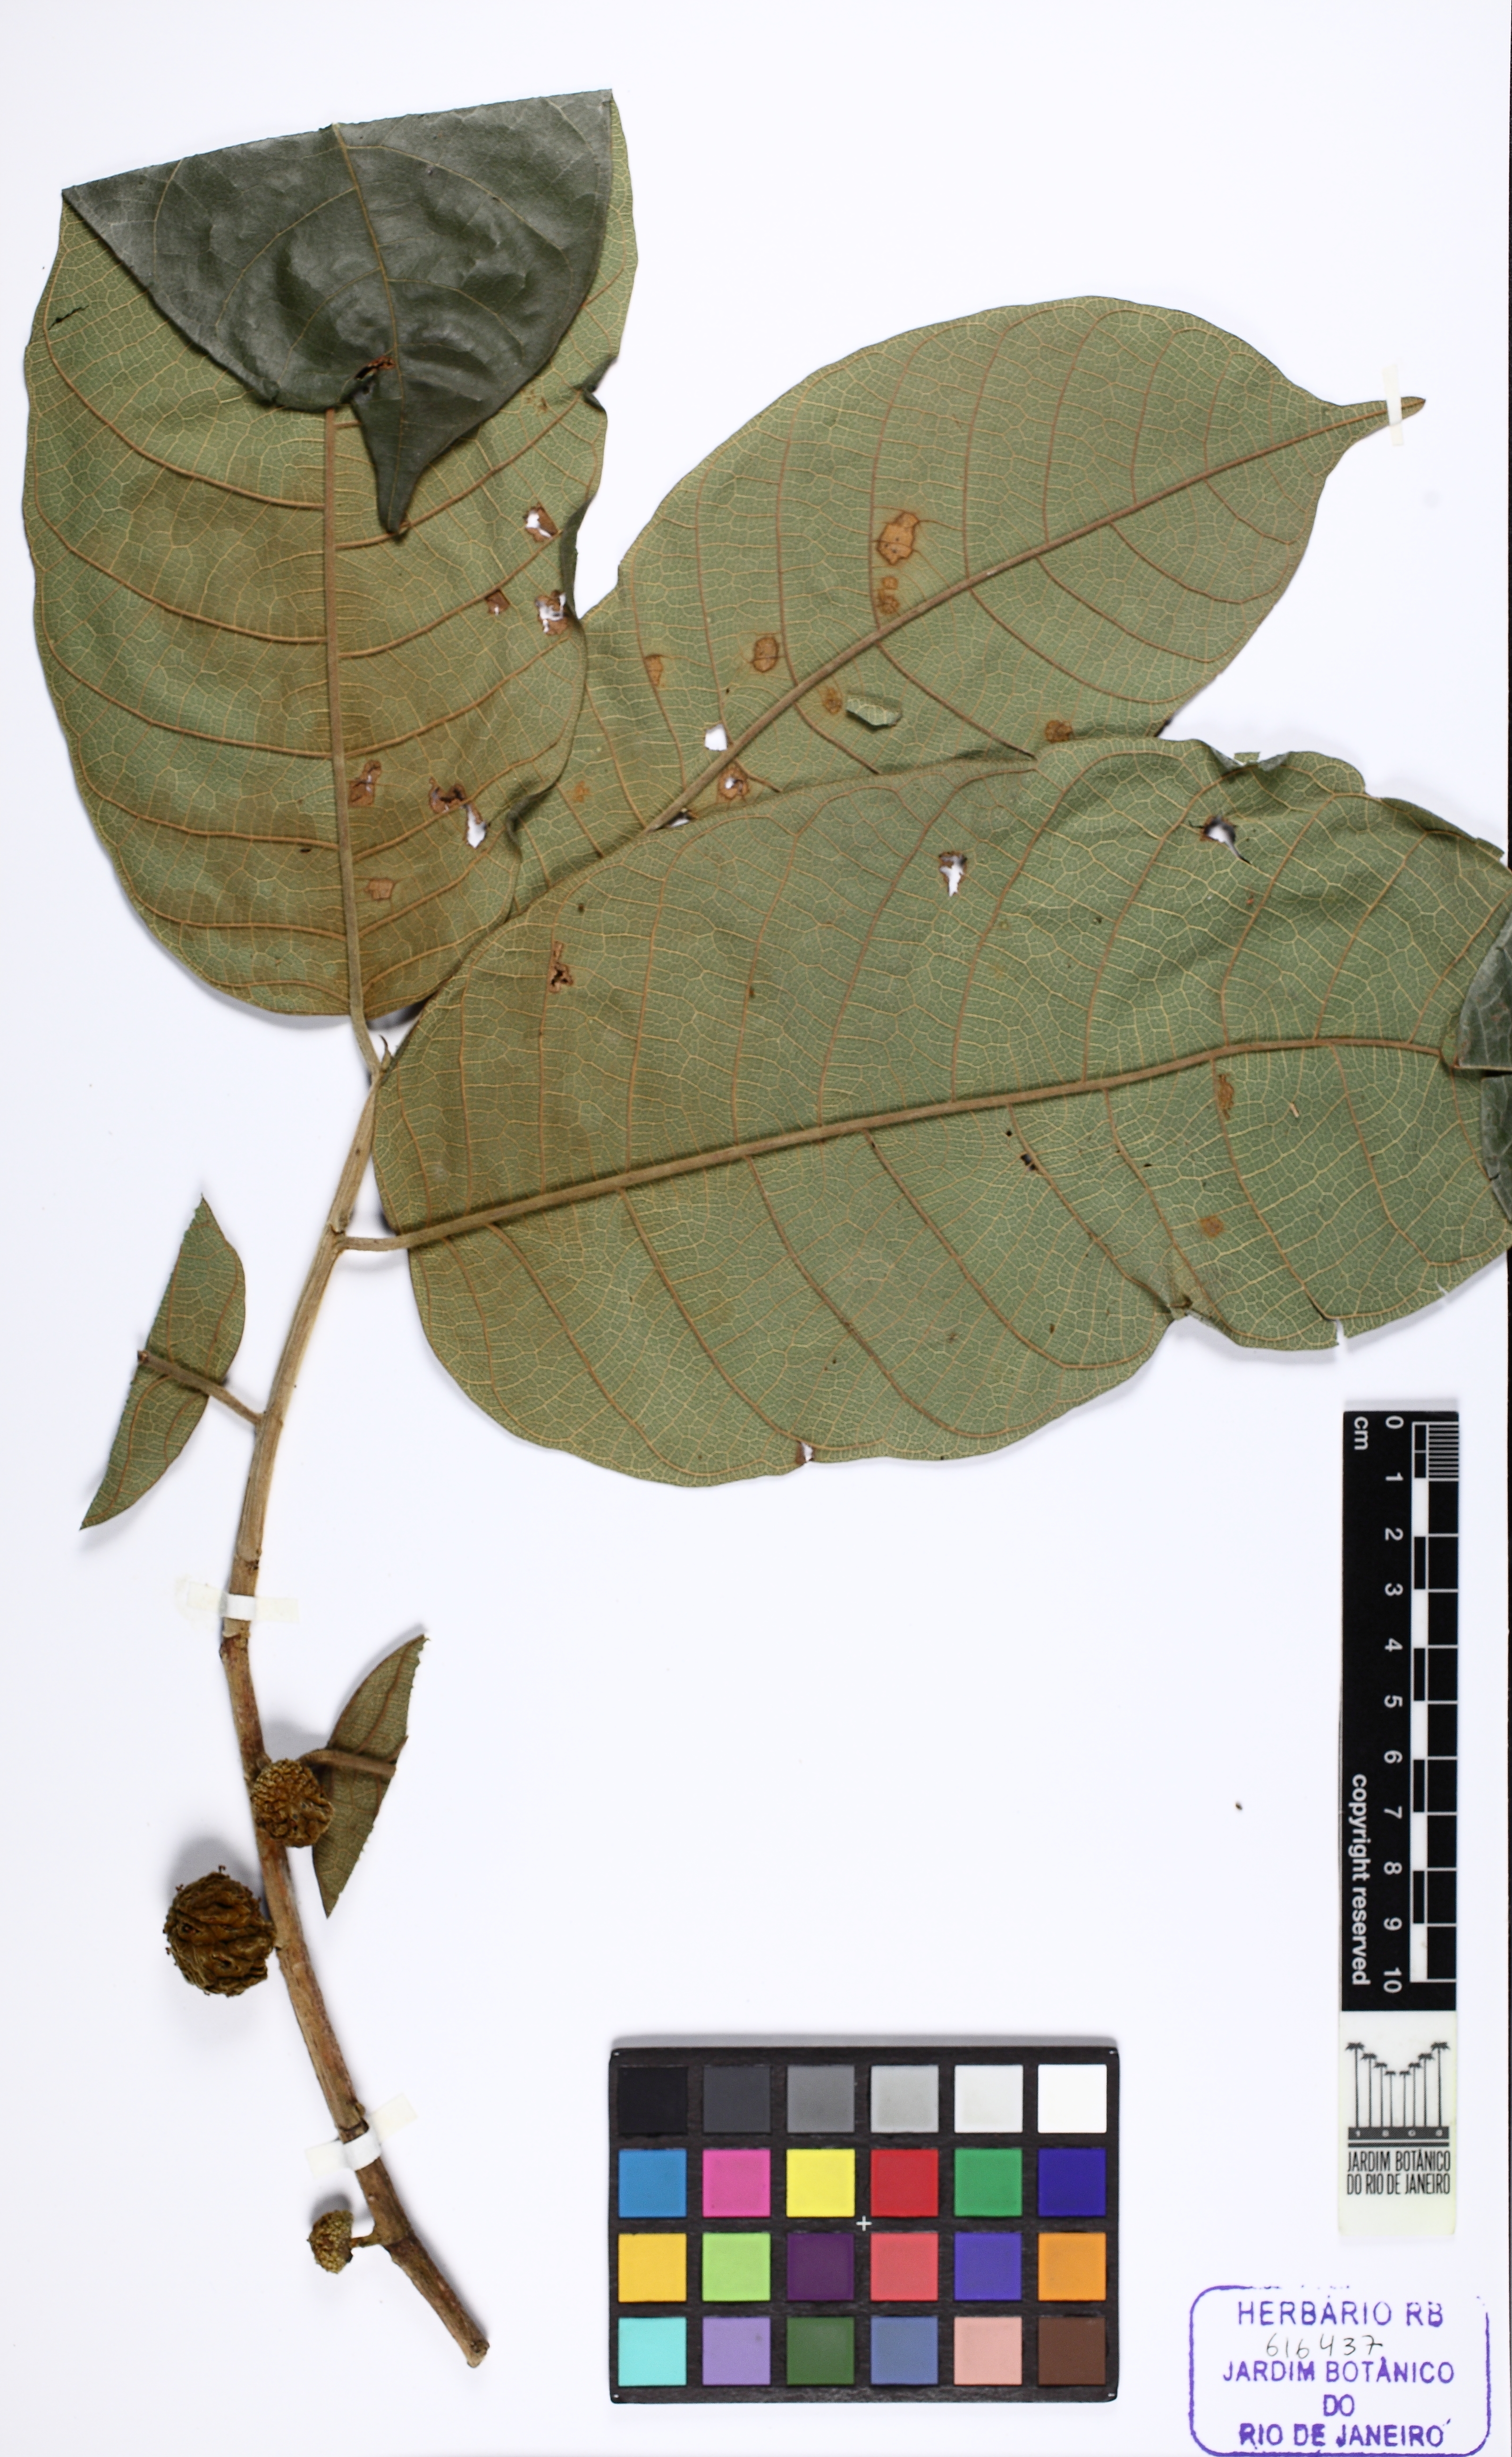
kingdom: Plantae
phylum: Tracheophyta
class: Magnoliopsida
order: Rosales
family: Moraceae
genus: Brosimum
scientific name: Brosimum
